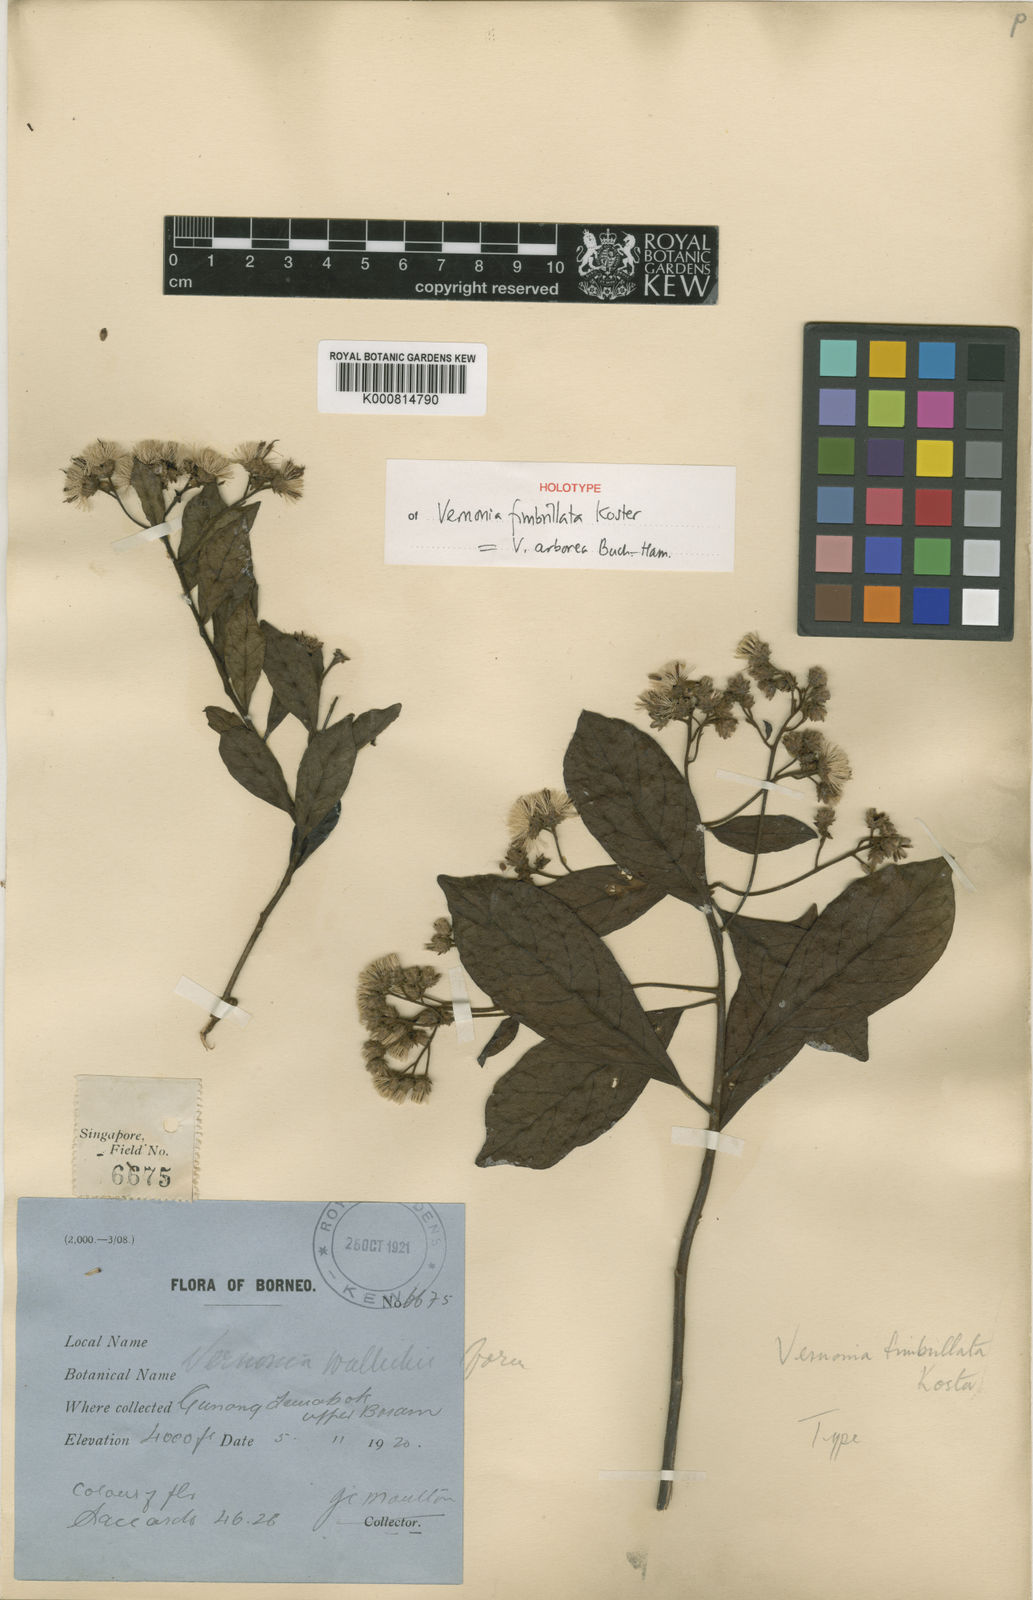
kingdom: Plantae
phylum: Tracheophyta
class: Magnoliopsida
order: Asterales
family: Asteraceae
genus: Vernonia
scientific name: Vernonia fimbrillata
